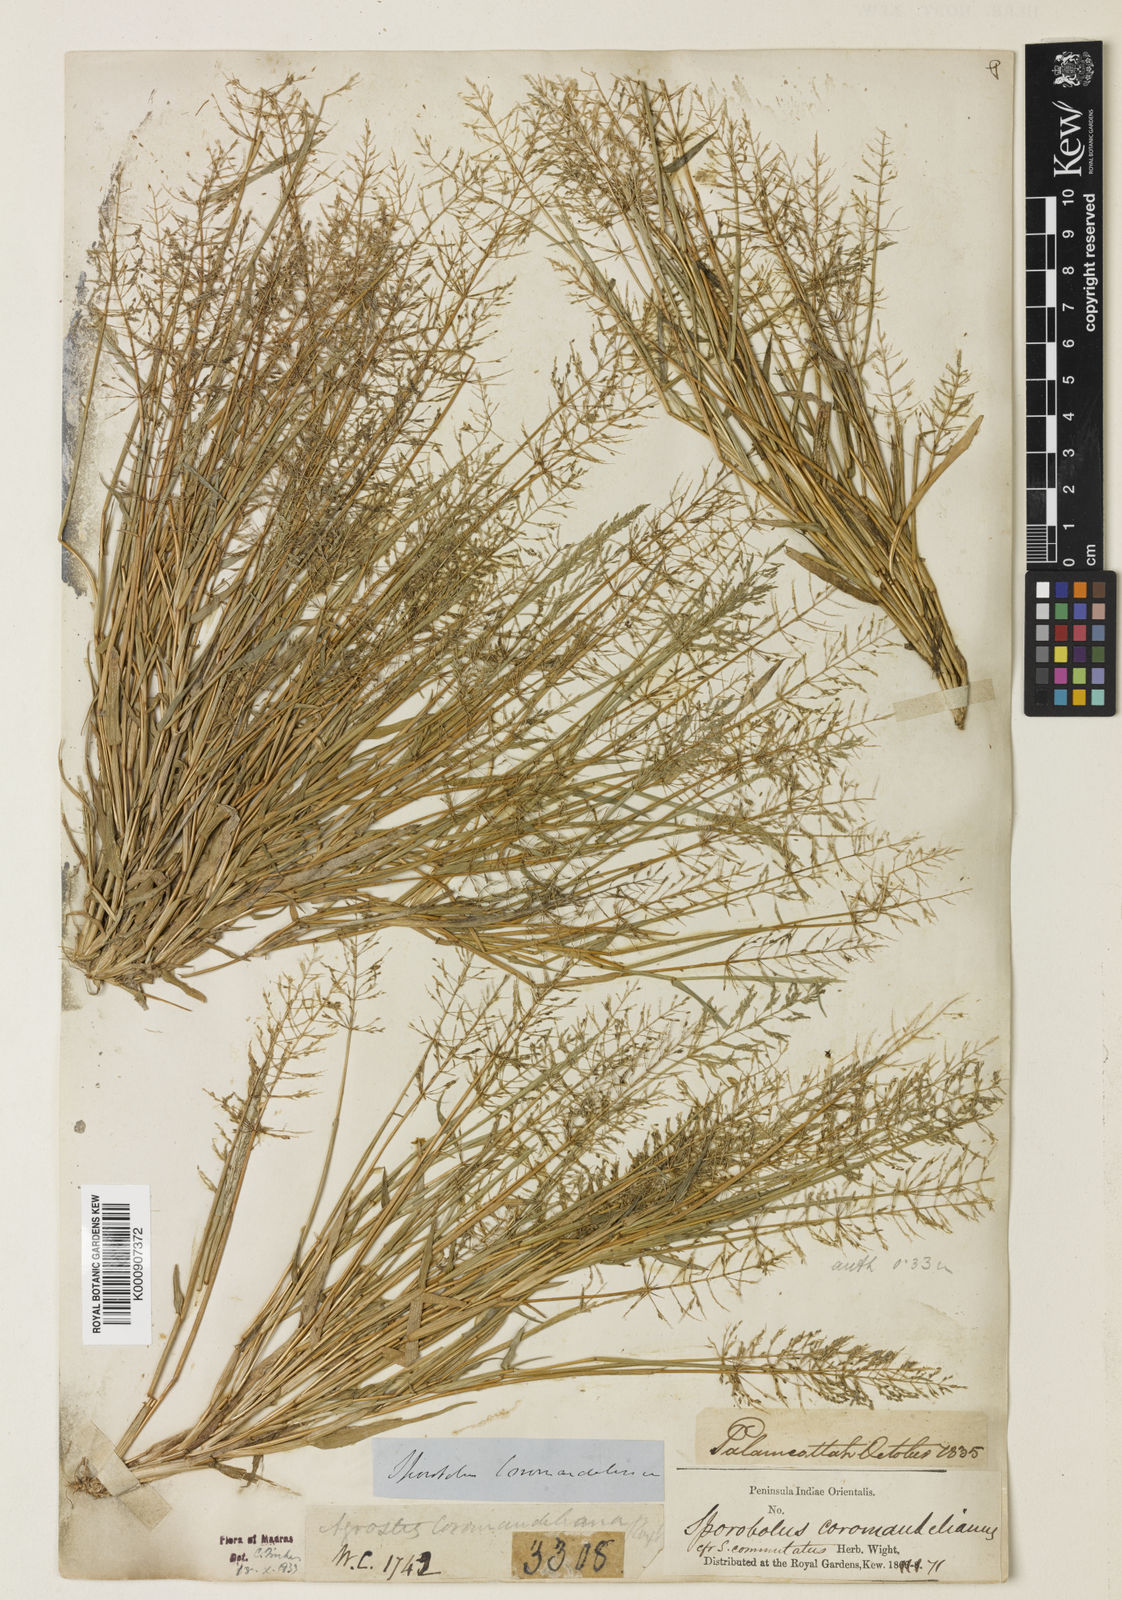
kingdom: Plantae
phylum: Tracheophyta
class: Liliopsida
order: Poales
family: Poaceae
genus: Sporobolus
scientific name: Sporobolus coromandelianus
